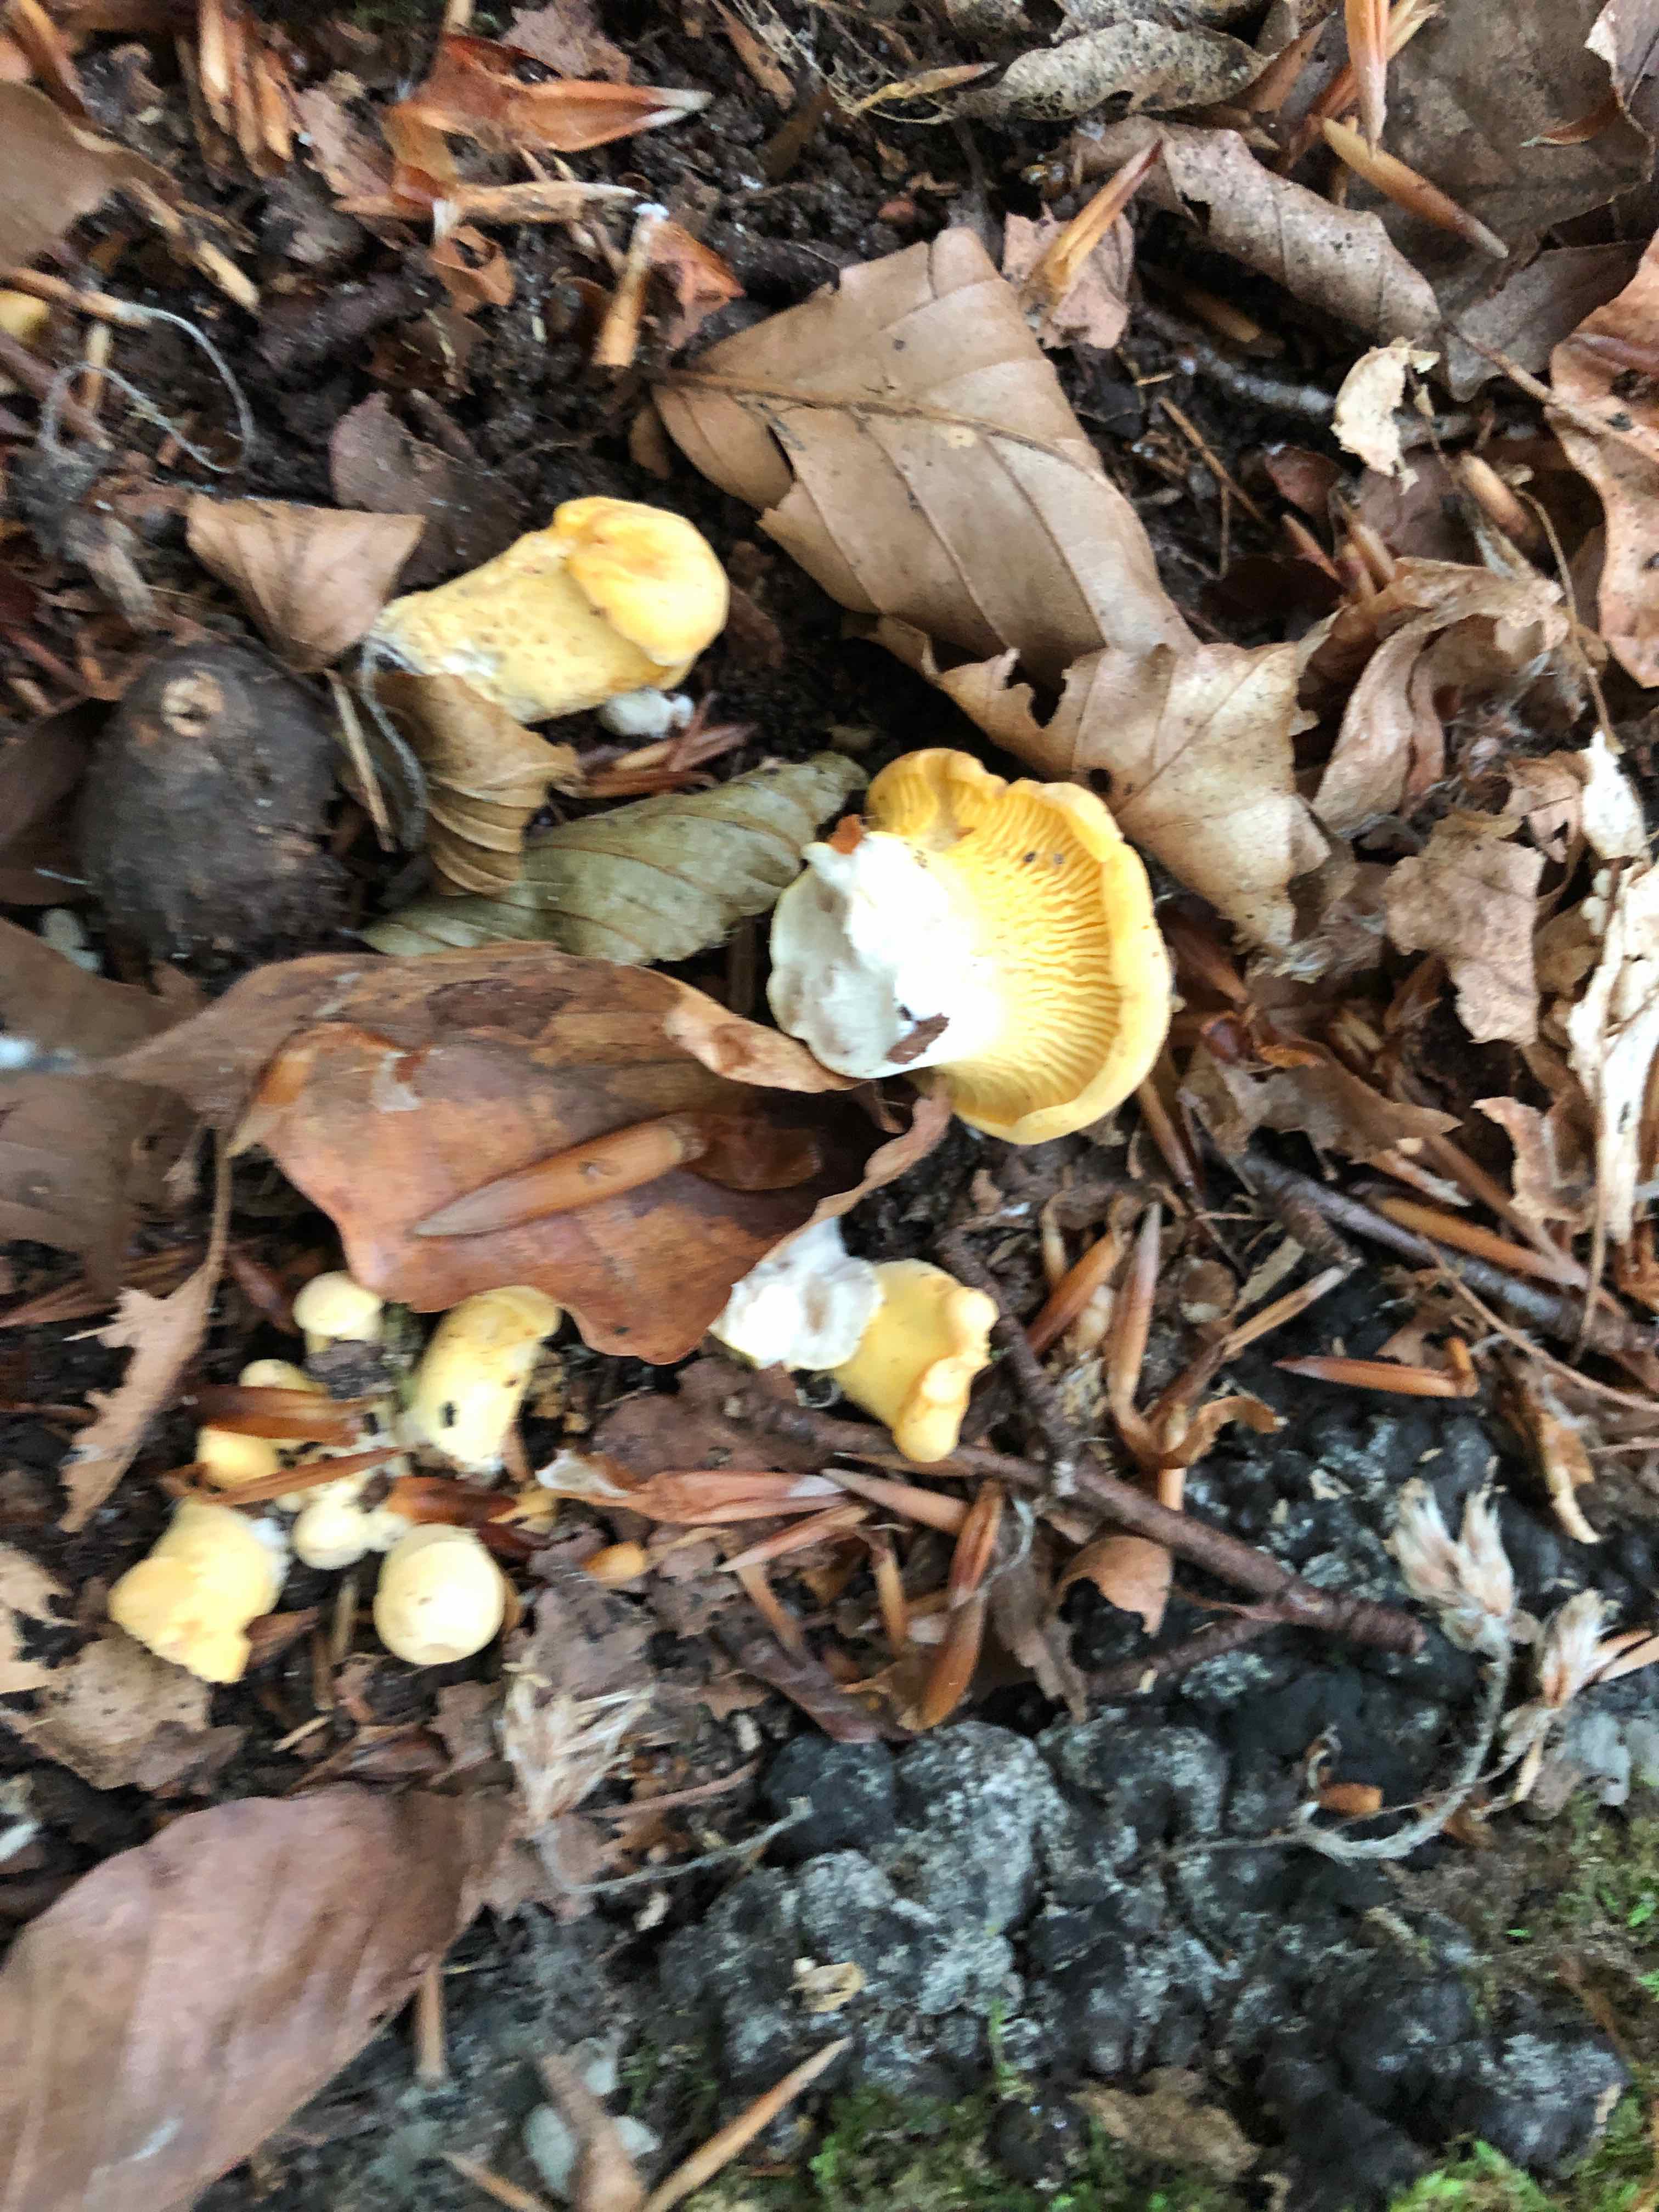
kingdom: Fungi
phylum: Basidiomycota
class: Agaricomycetes
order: Cantharellales
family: Hydnaceae
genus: Cantharellus
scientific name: Cantharellus pallens
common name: bleg kantarel
